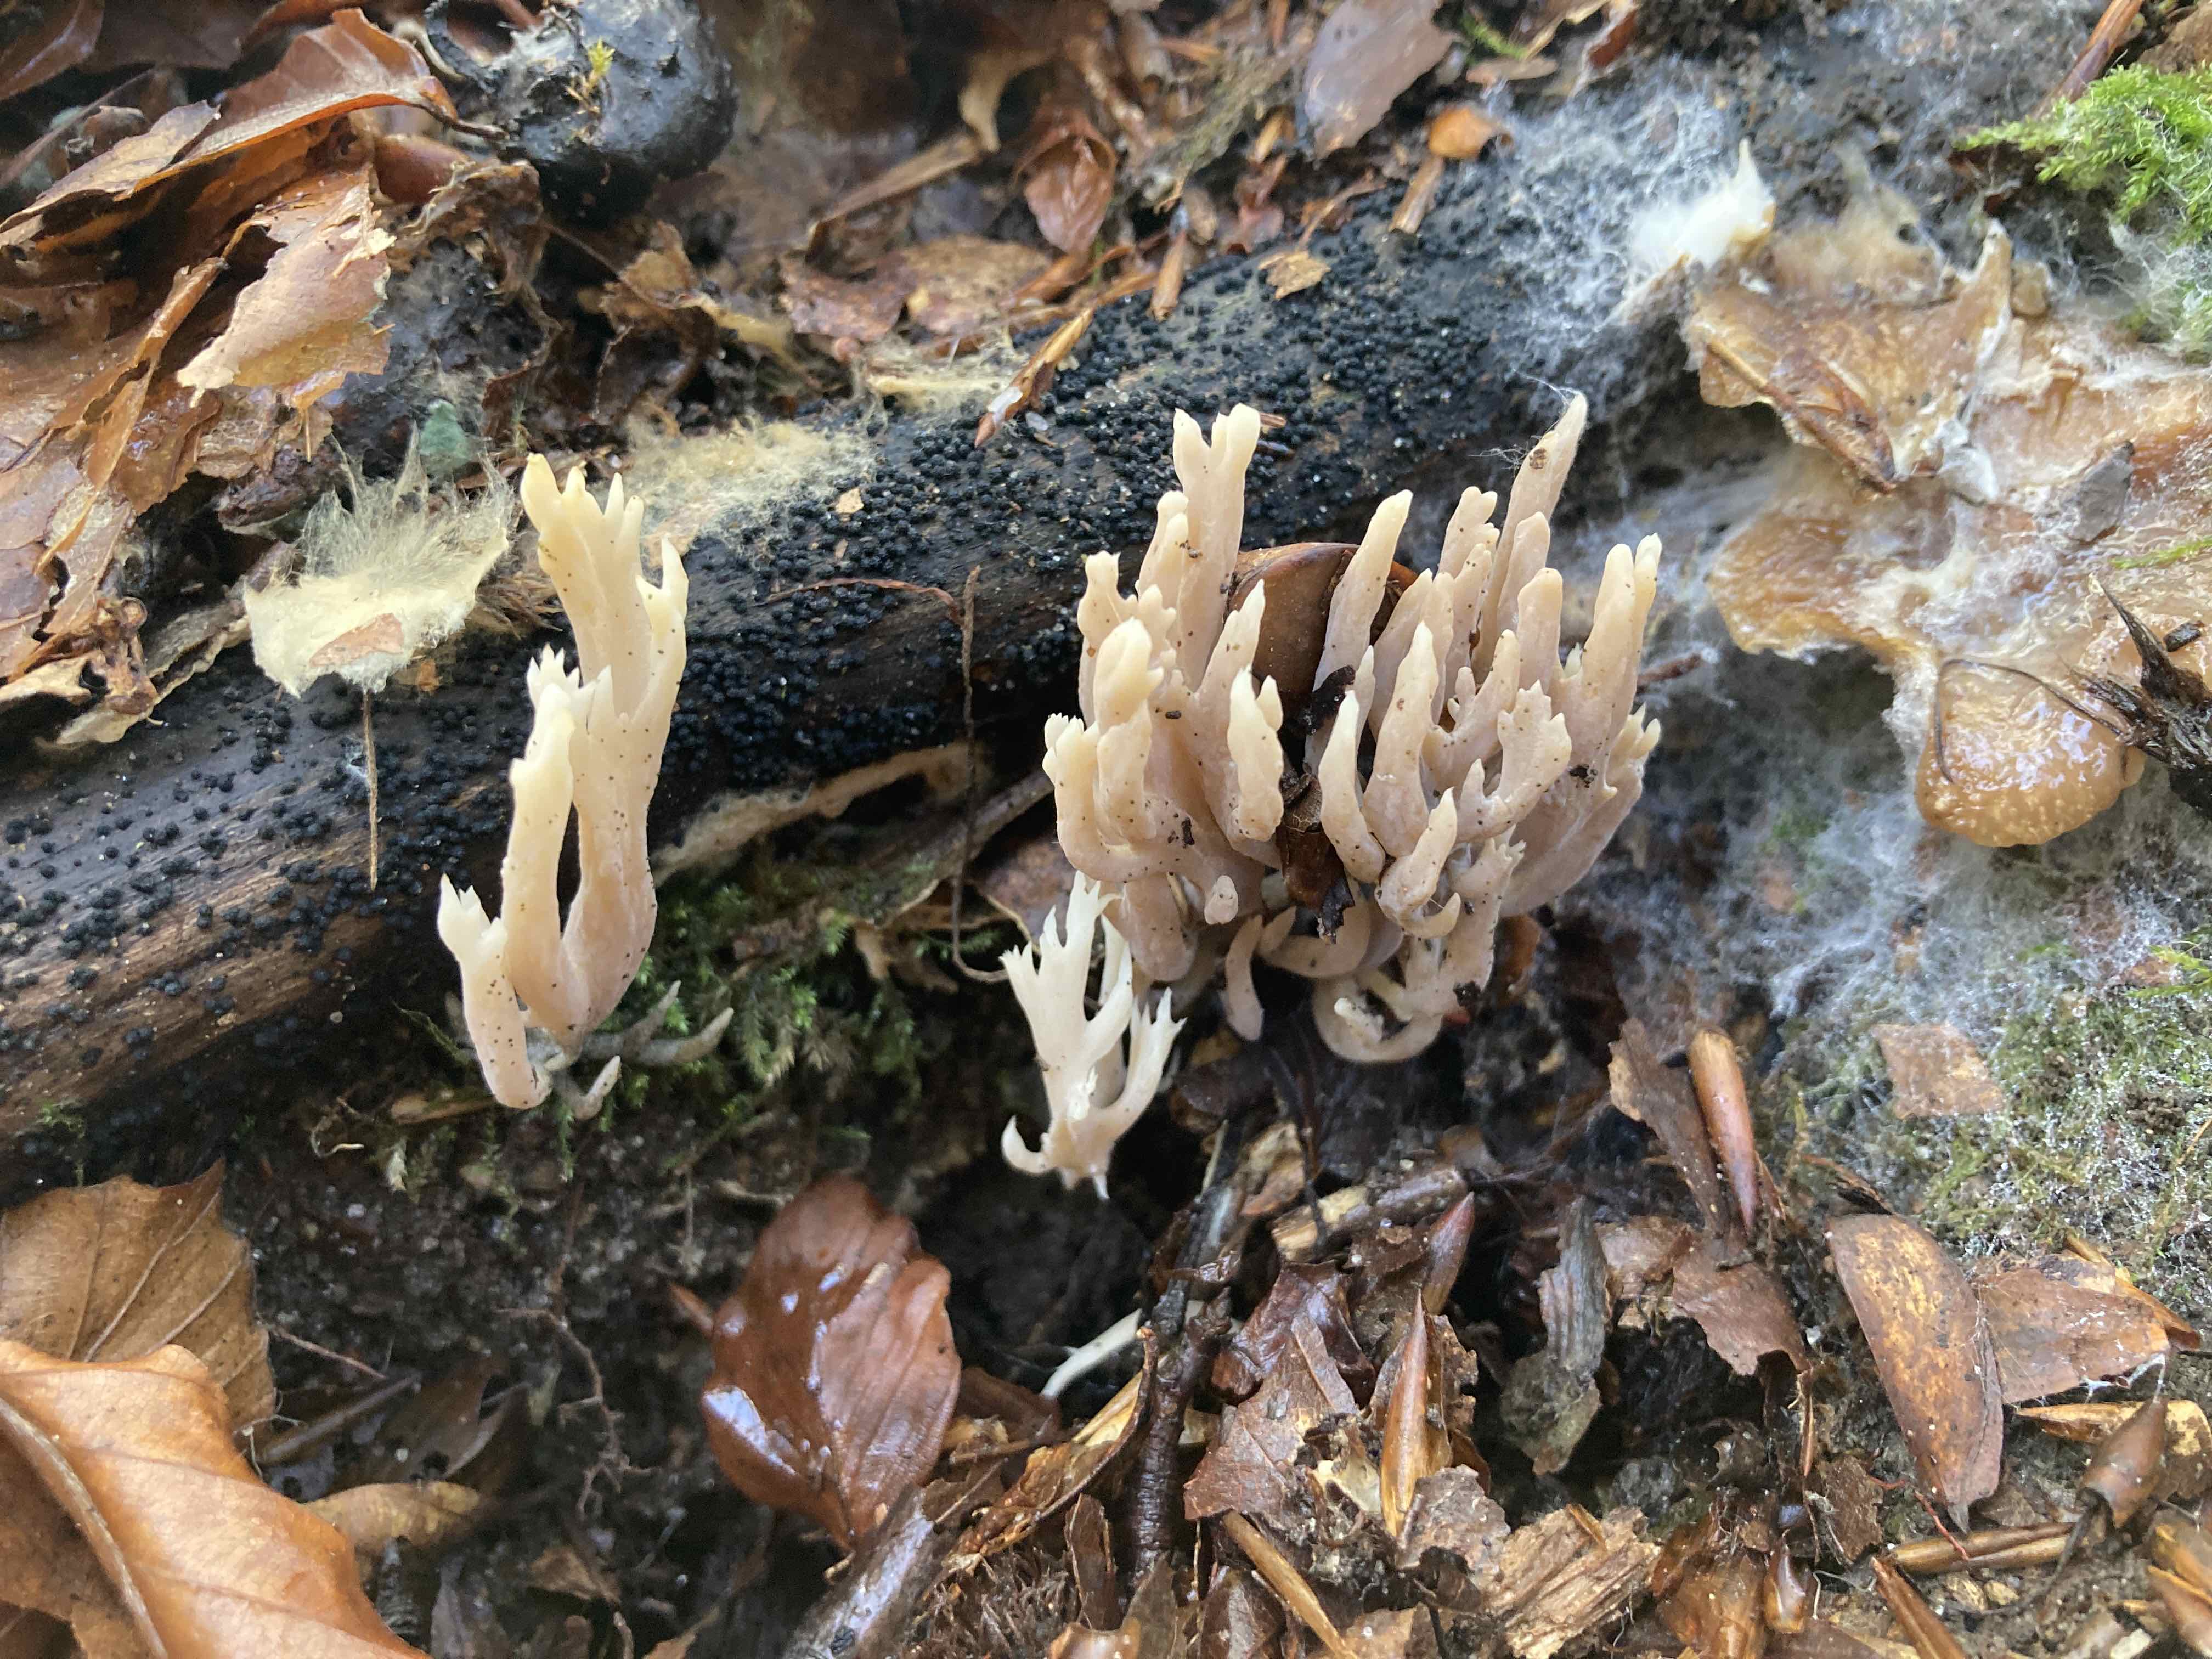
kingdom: Fungi
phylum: Basidiomycota
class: Agaricomycetes
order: Cantharellales
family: Hydnaceae
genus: Clavulina
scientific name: Clavulina coralloides
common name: Crested coral
